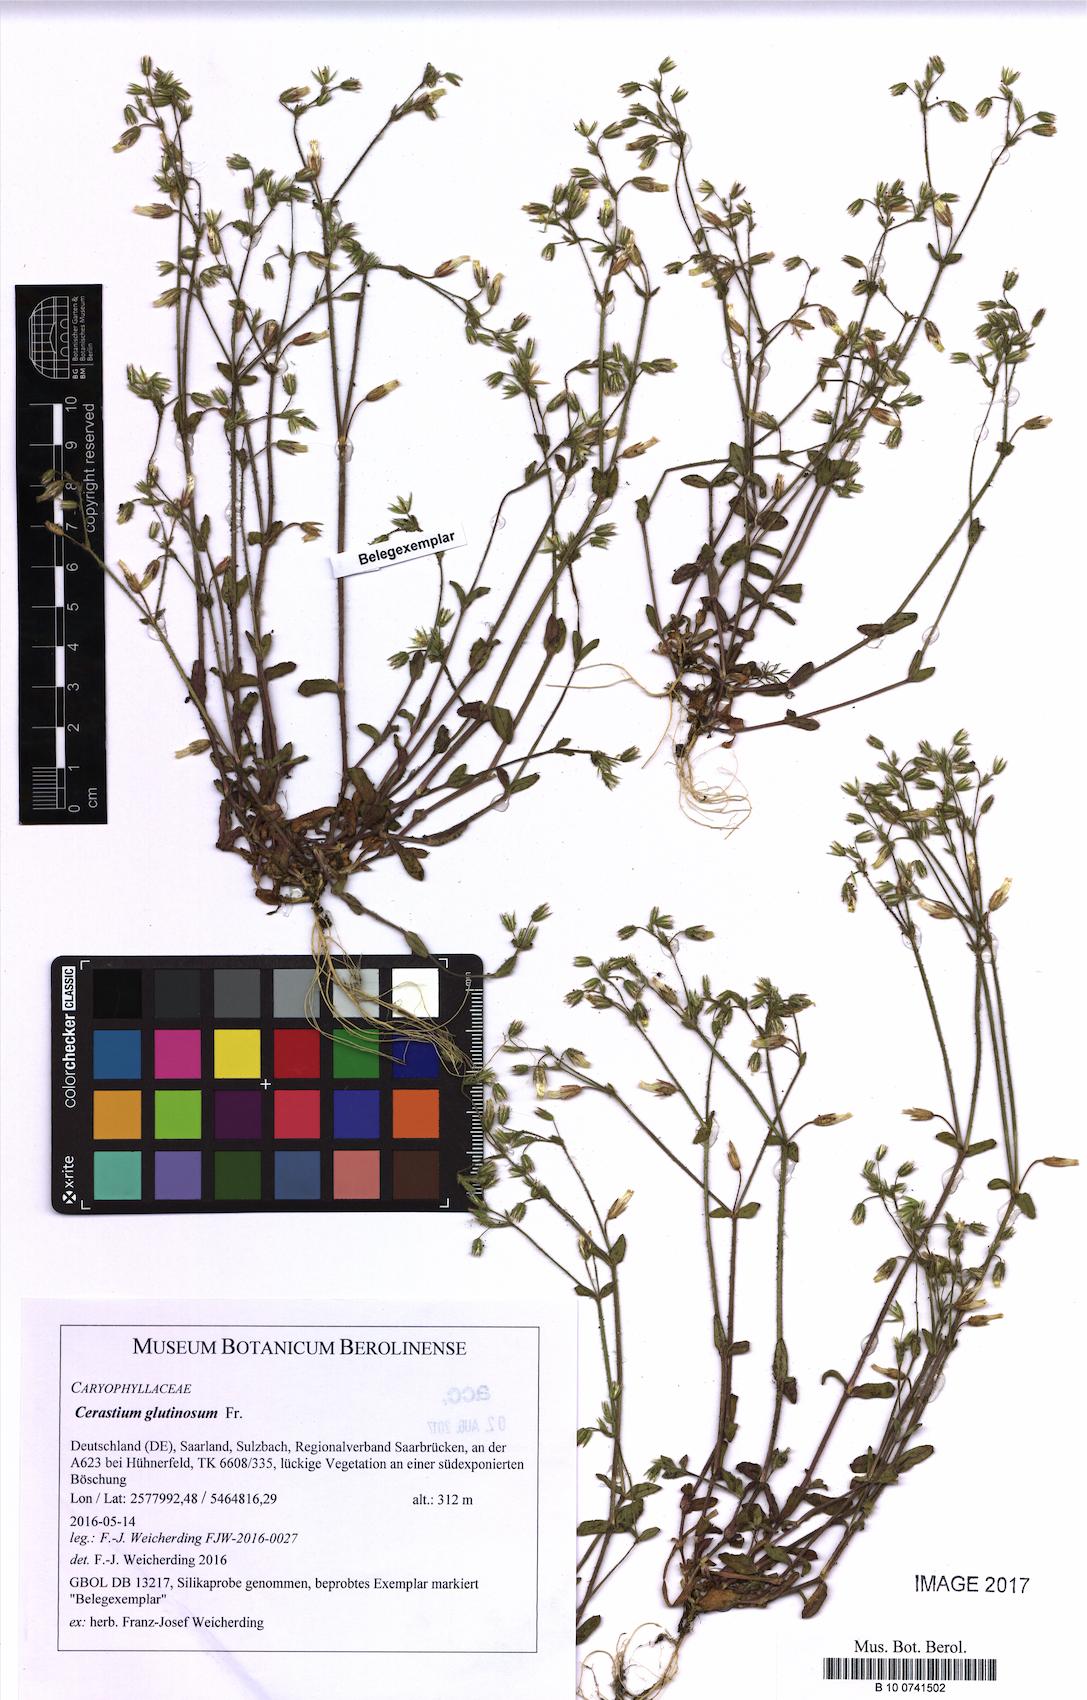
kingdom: Plantae
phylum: Tracheophyta
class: Magnoliopsida
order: Caryophyllales
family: Caryophyllaceae
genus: Cerastium
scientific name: Cerastium glutinosum
